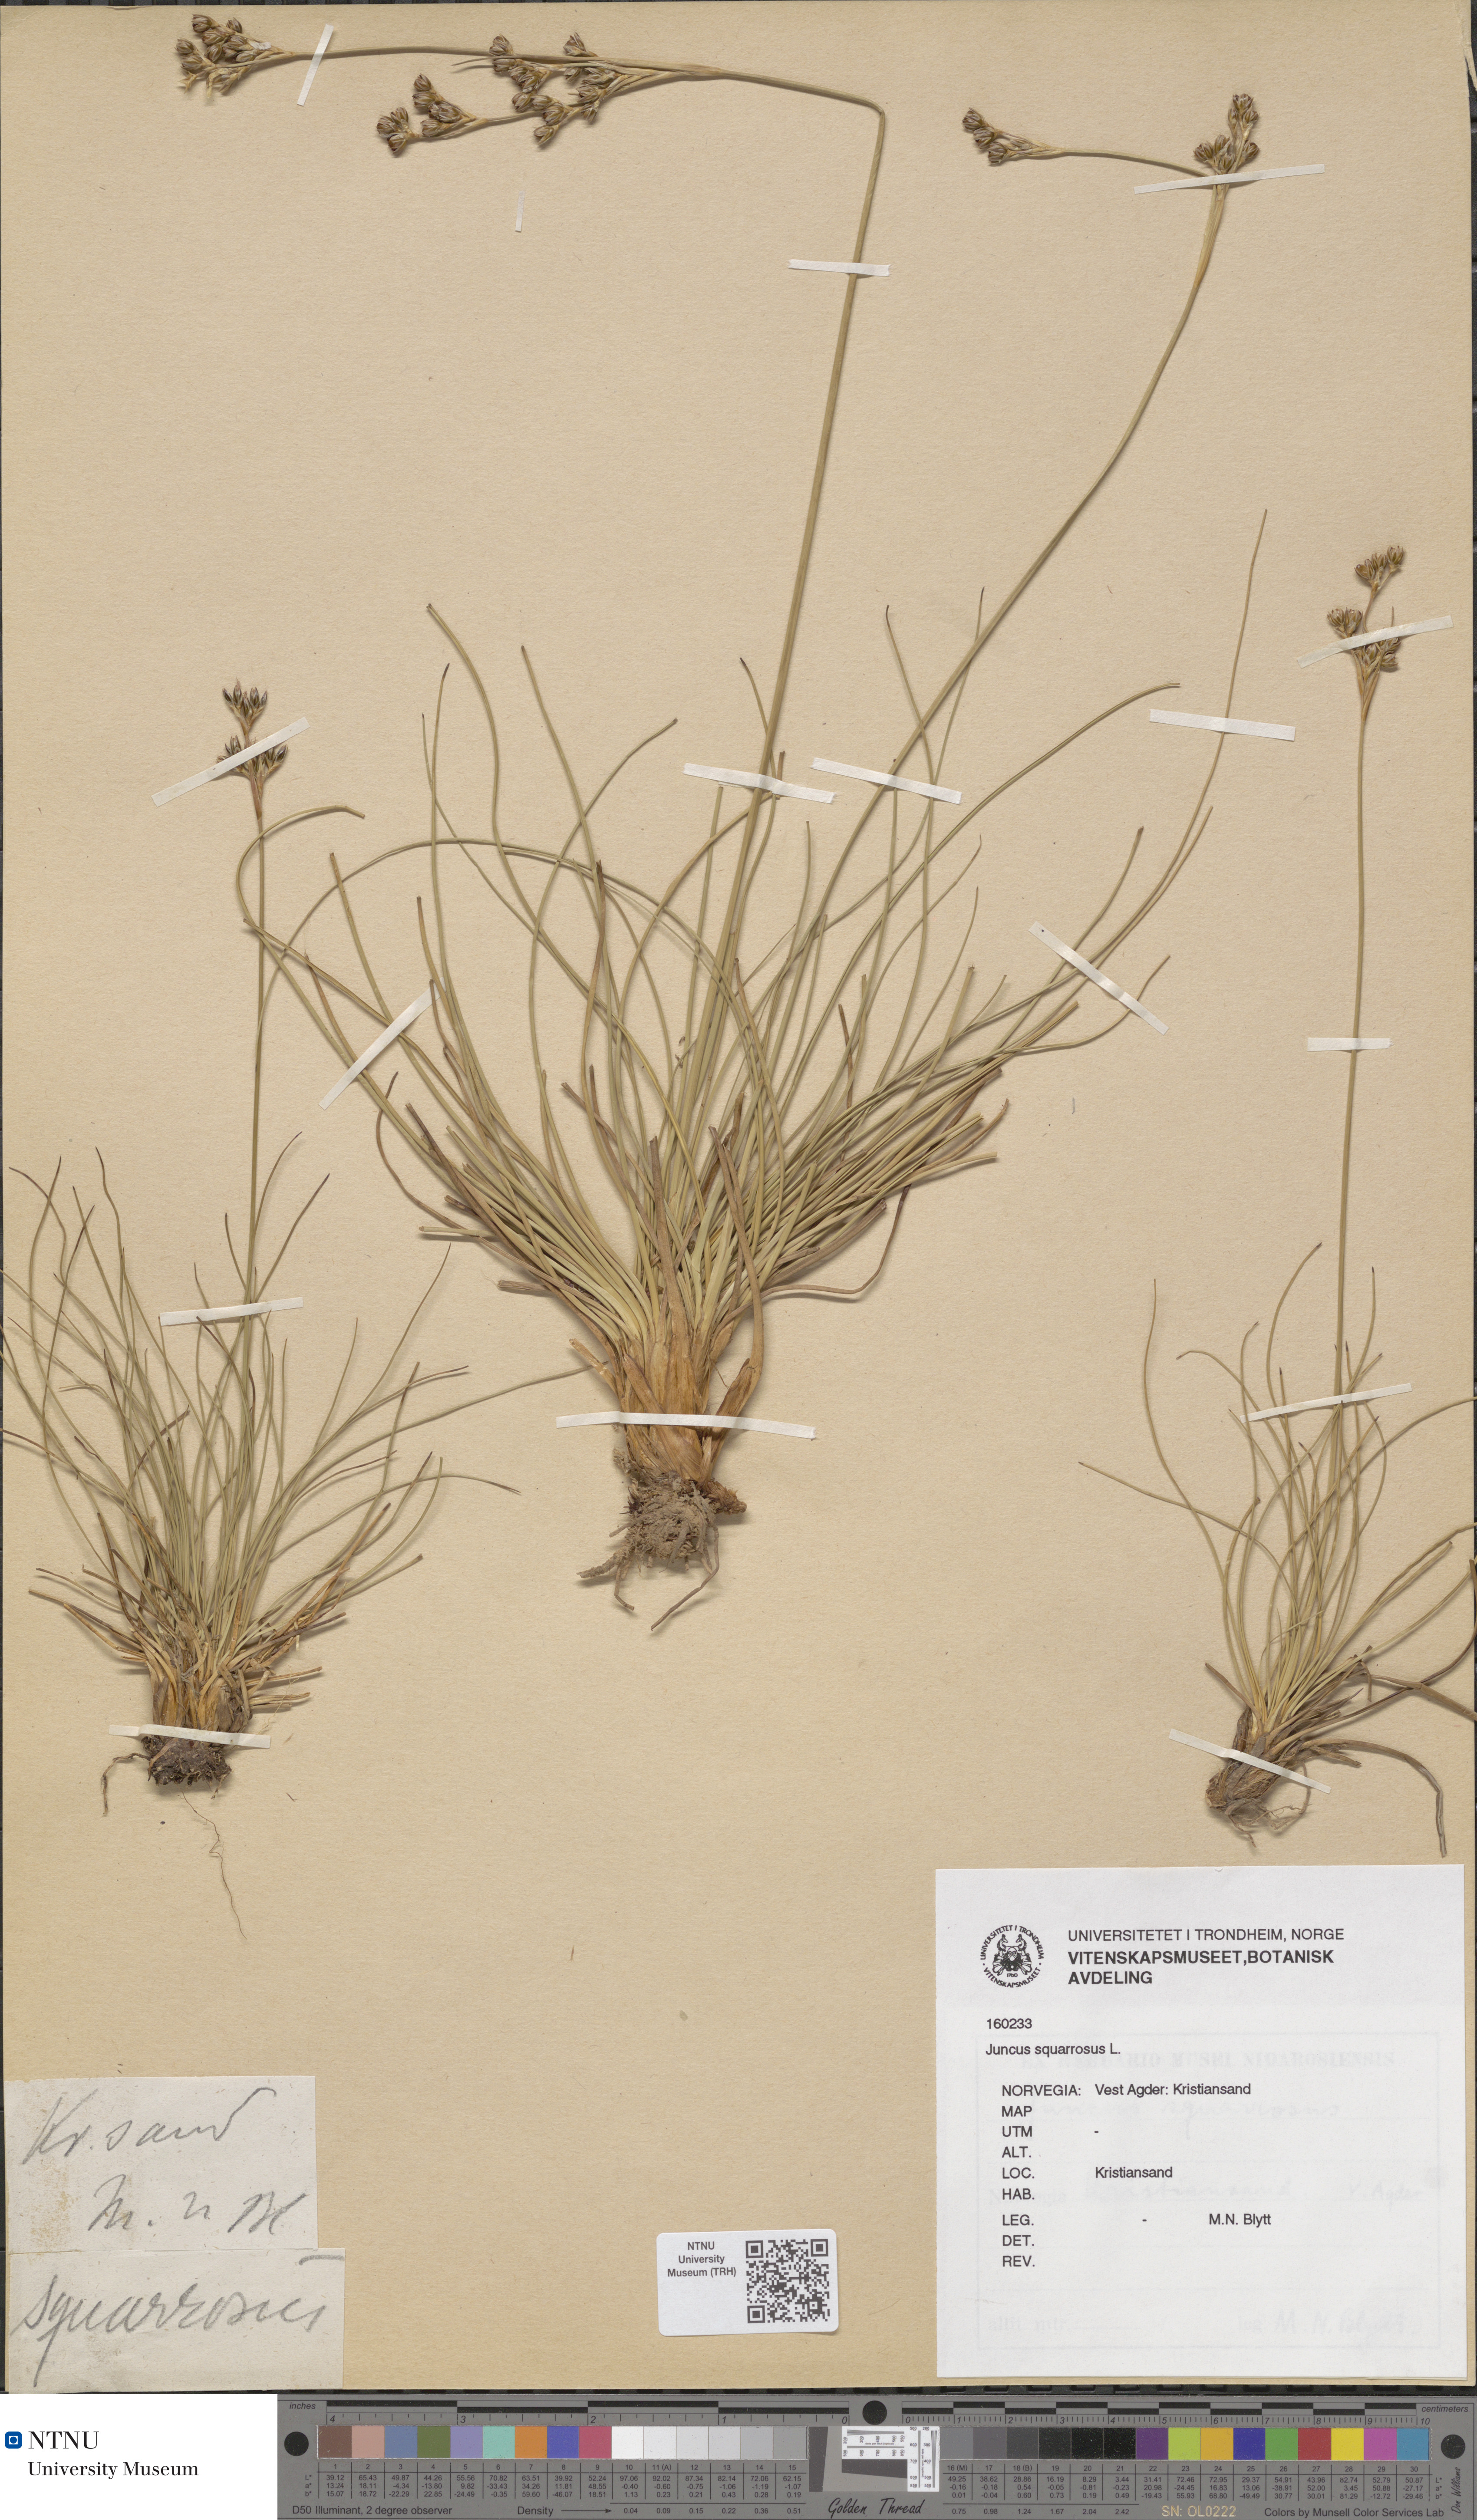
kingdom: Plantae
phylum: Tracheophyta
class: Liliopsida
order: Poales
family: Juncaceae
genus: Juncus
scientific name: Juncus squarrosus
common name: Heath rush
